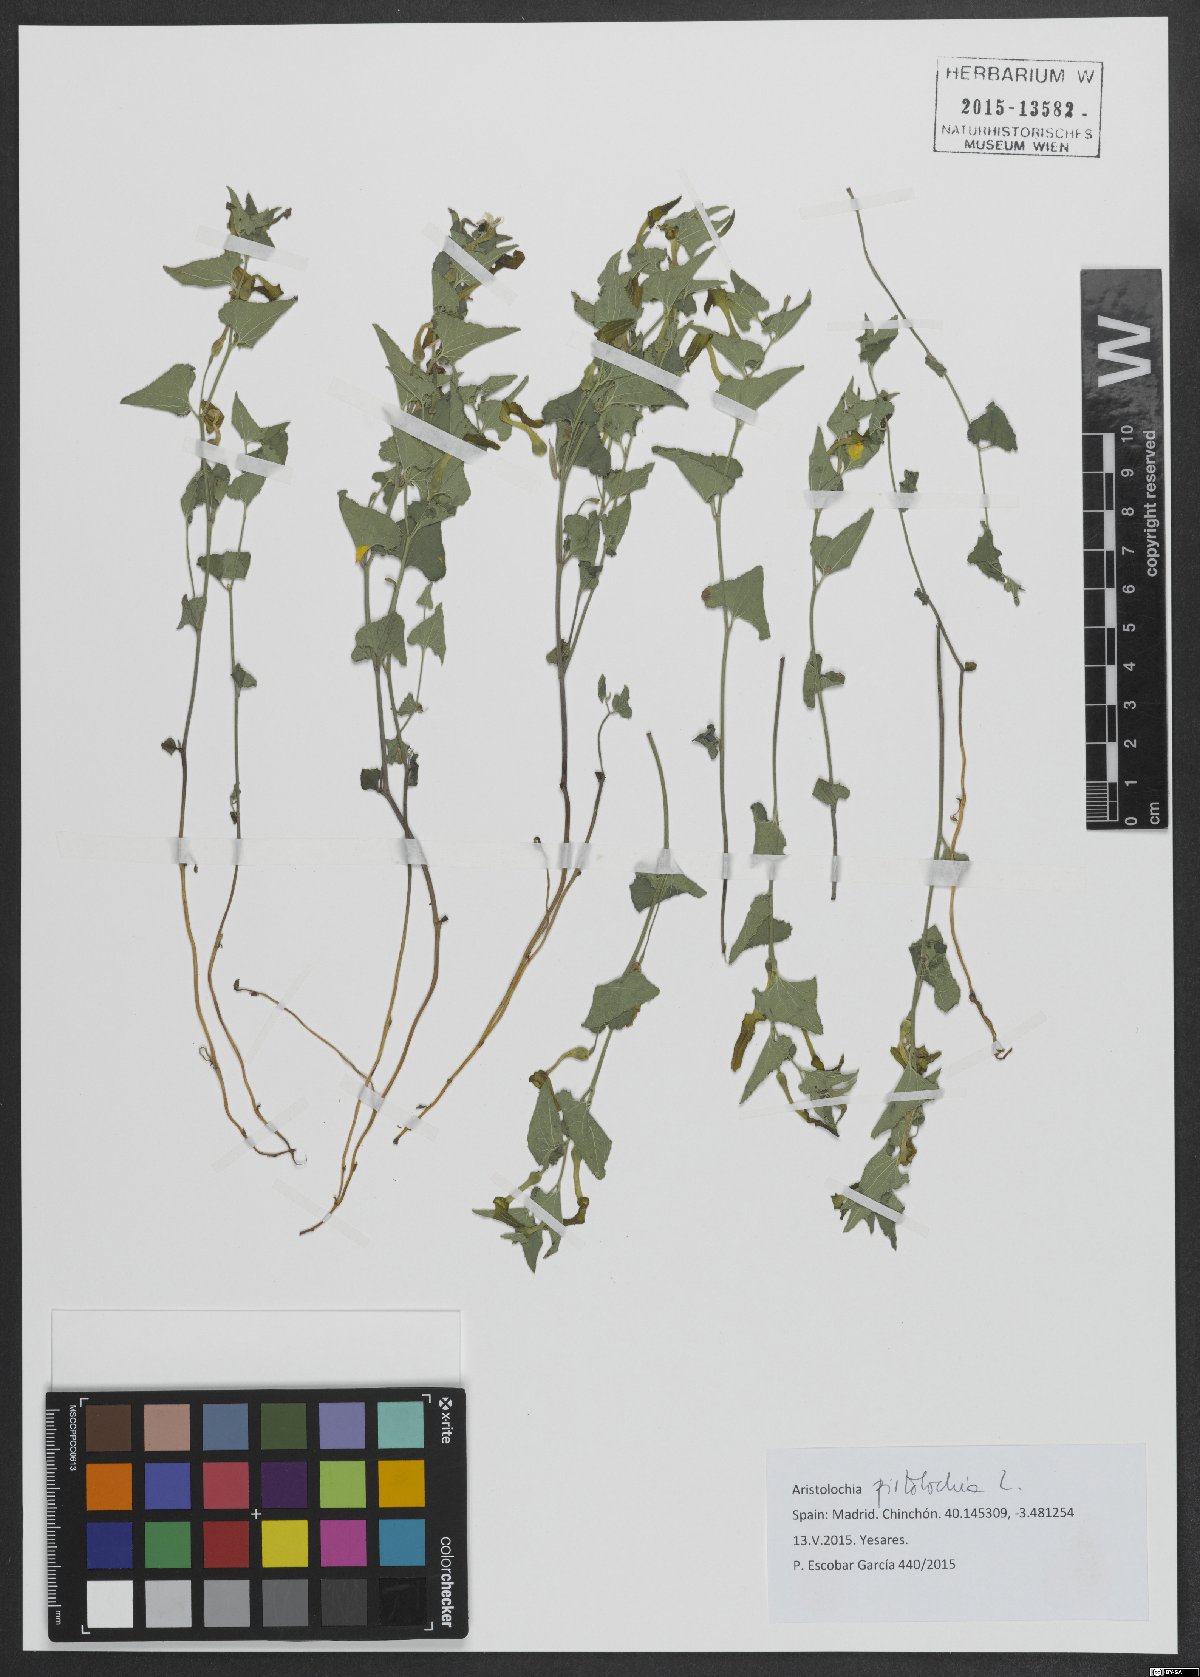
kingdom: Plantae
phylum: Tracheophyta
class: Magnoliopsida
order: Piperales
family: Aristolochiaceae
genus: Aristolochia
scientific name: Aristolochia pistolochia
